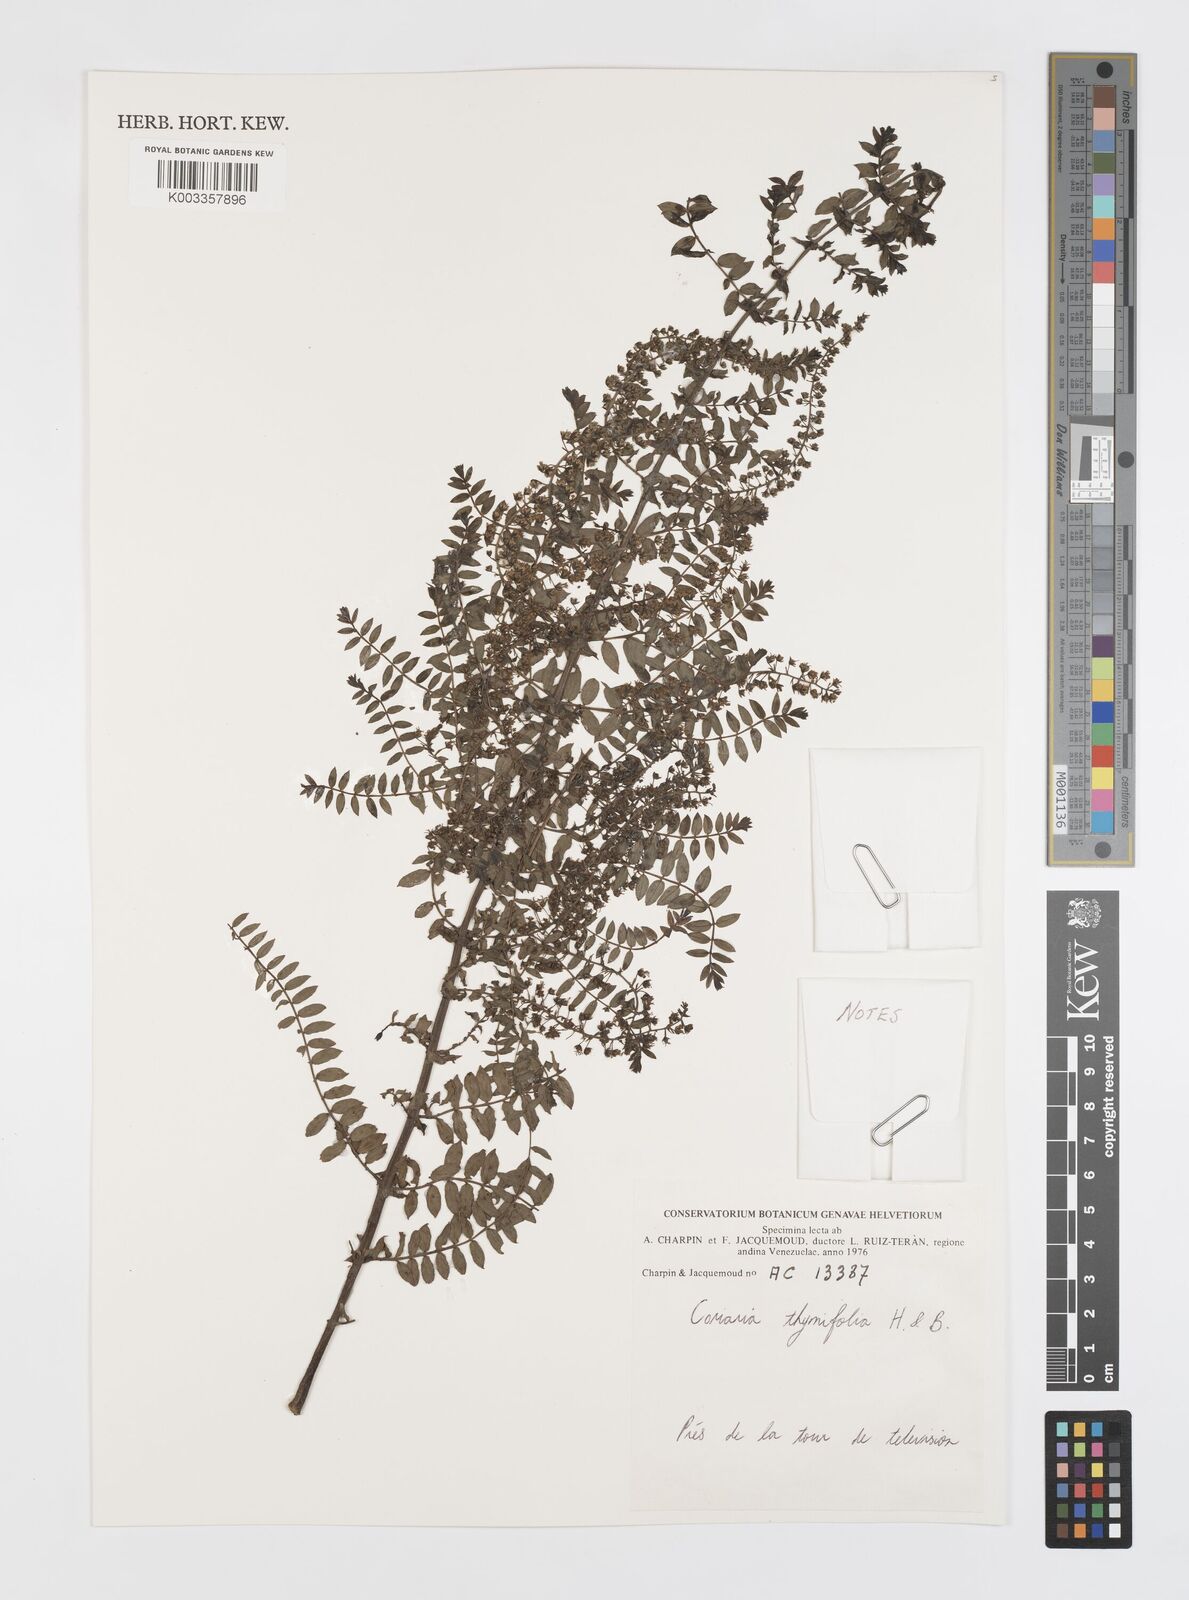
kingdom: Plantae
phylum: Tracheophyta
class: Magnoliopsida
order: Cucurbitales
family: Coriariaceae
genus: Coriaria
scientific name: Coriaria microphylla
